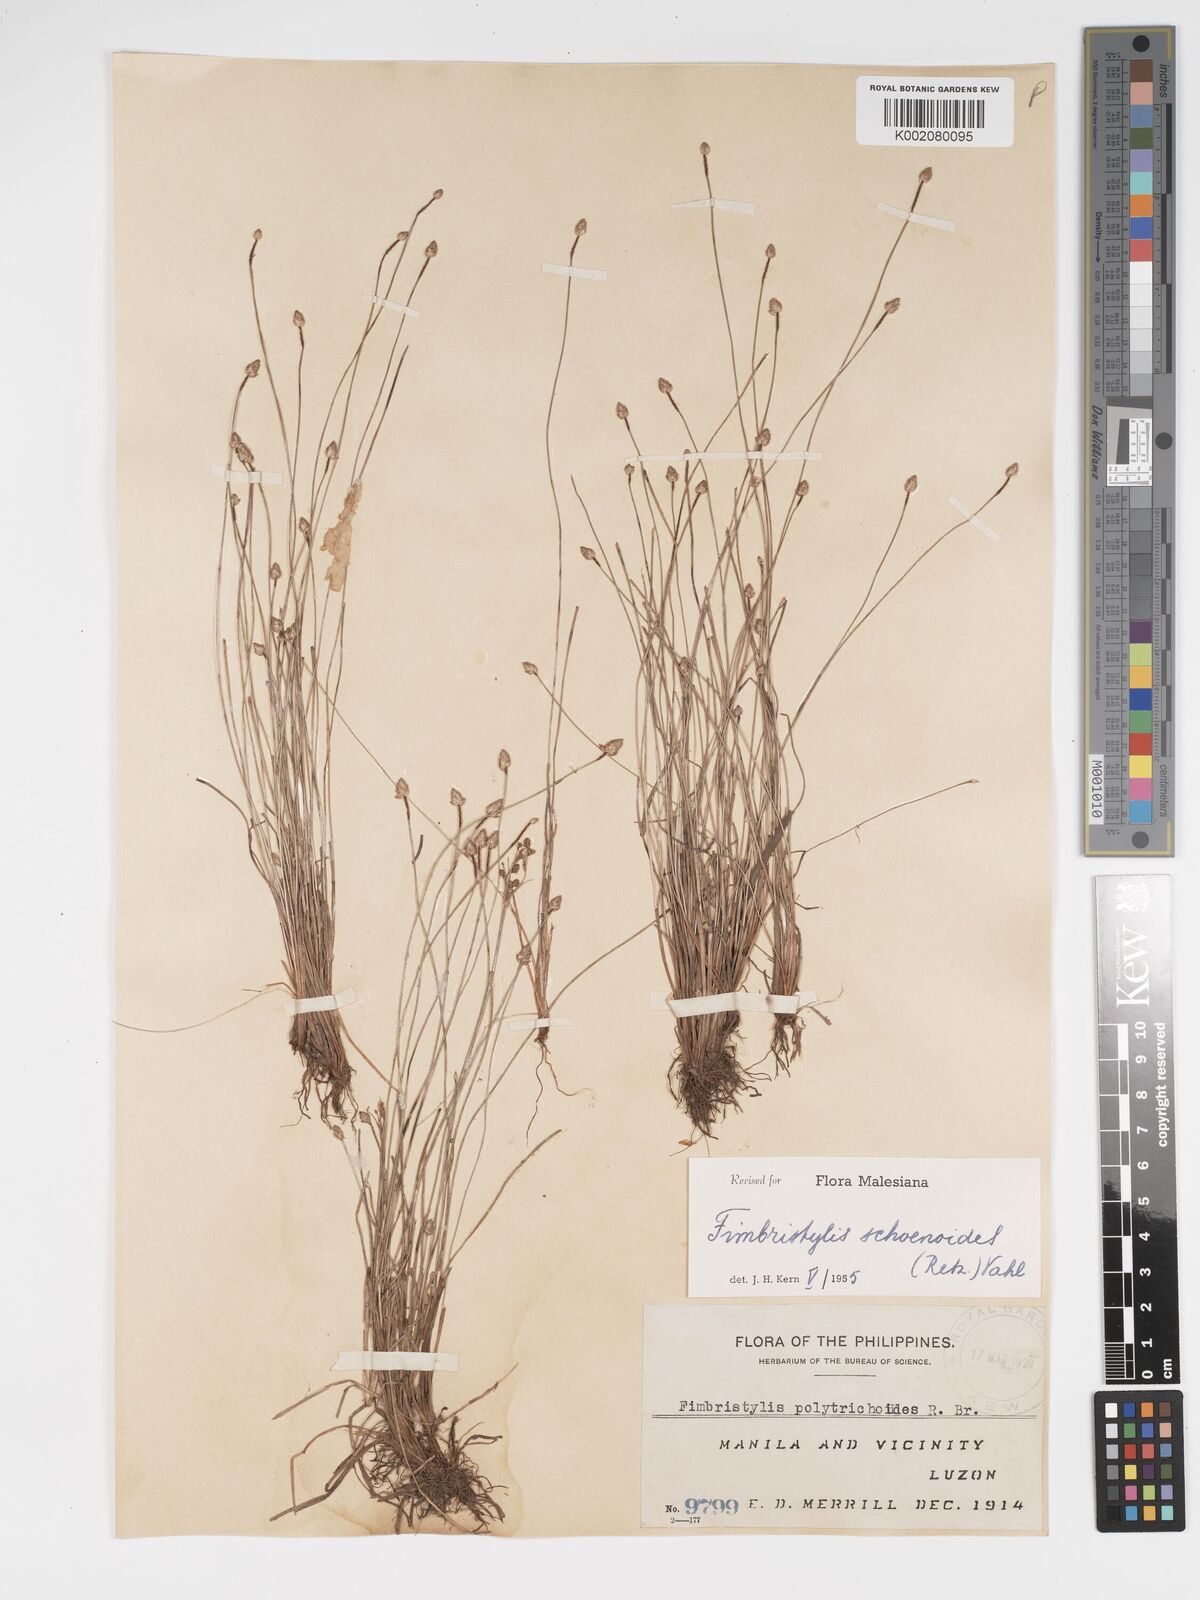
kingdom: Plantae
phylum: Tracheophyta
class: Liliopsida
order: Poales
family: Cyperaceae
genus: Fimbristylis
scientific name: Fimbristylis schoenoides
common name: Ditch fimbry
